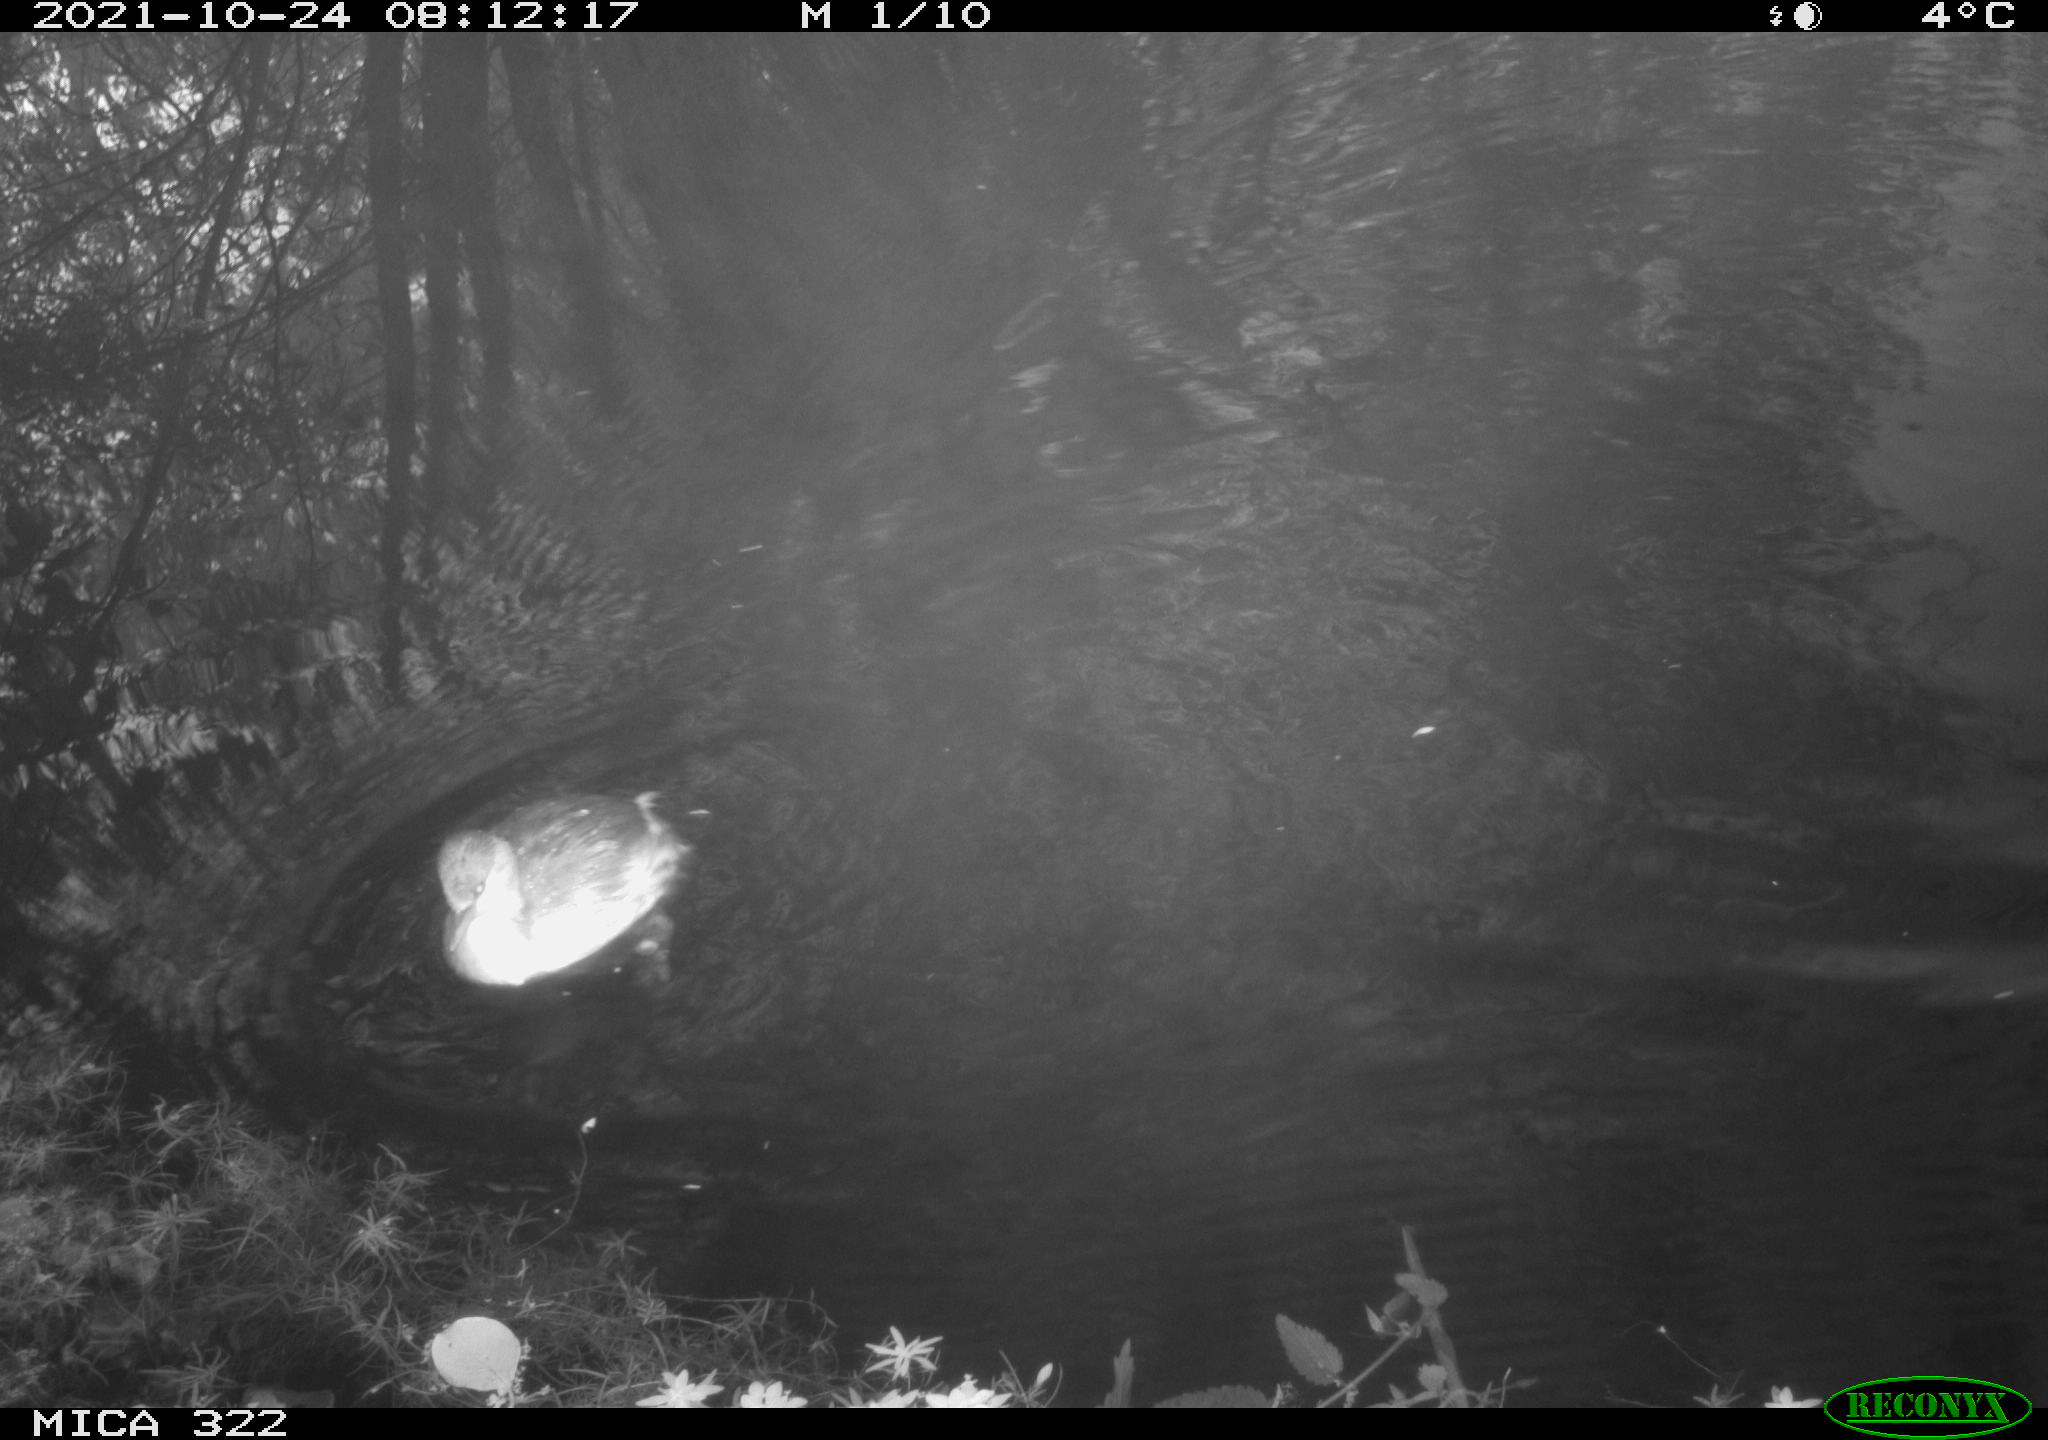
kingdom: Animalia
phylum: Chordata
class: Aves
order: Podicipediformes
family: Podicipedidae
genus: Tachybaptus
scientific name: Tachybaptus ruficollis
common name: Little grebe
